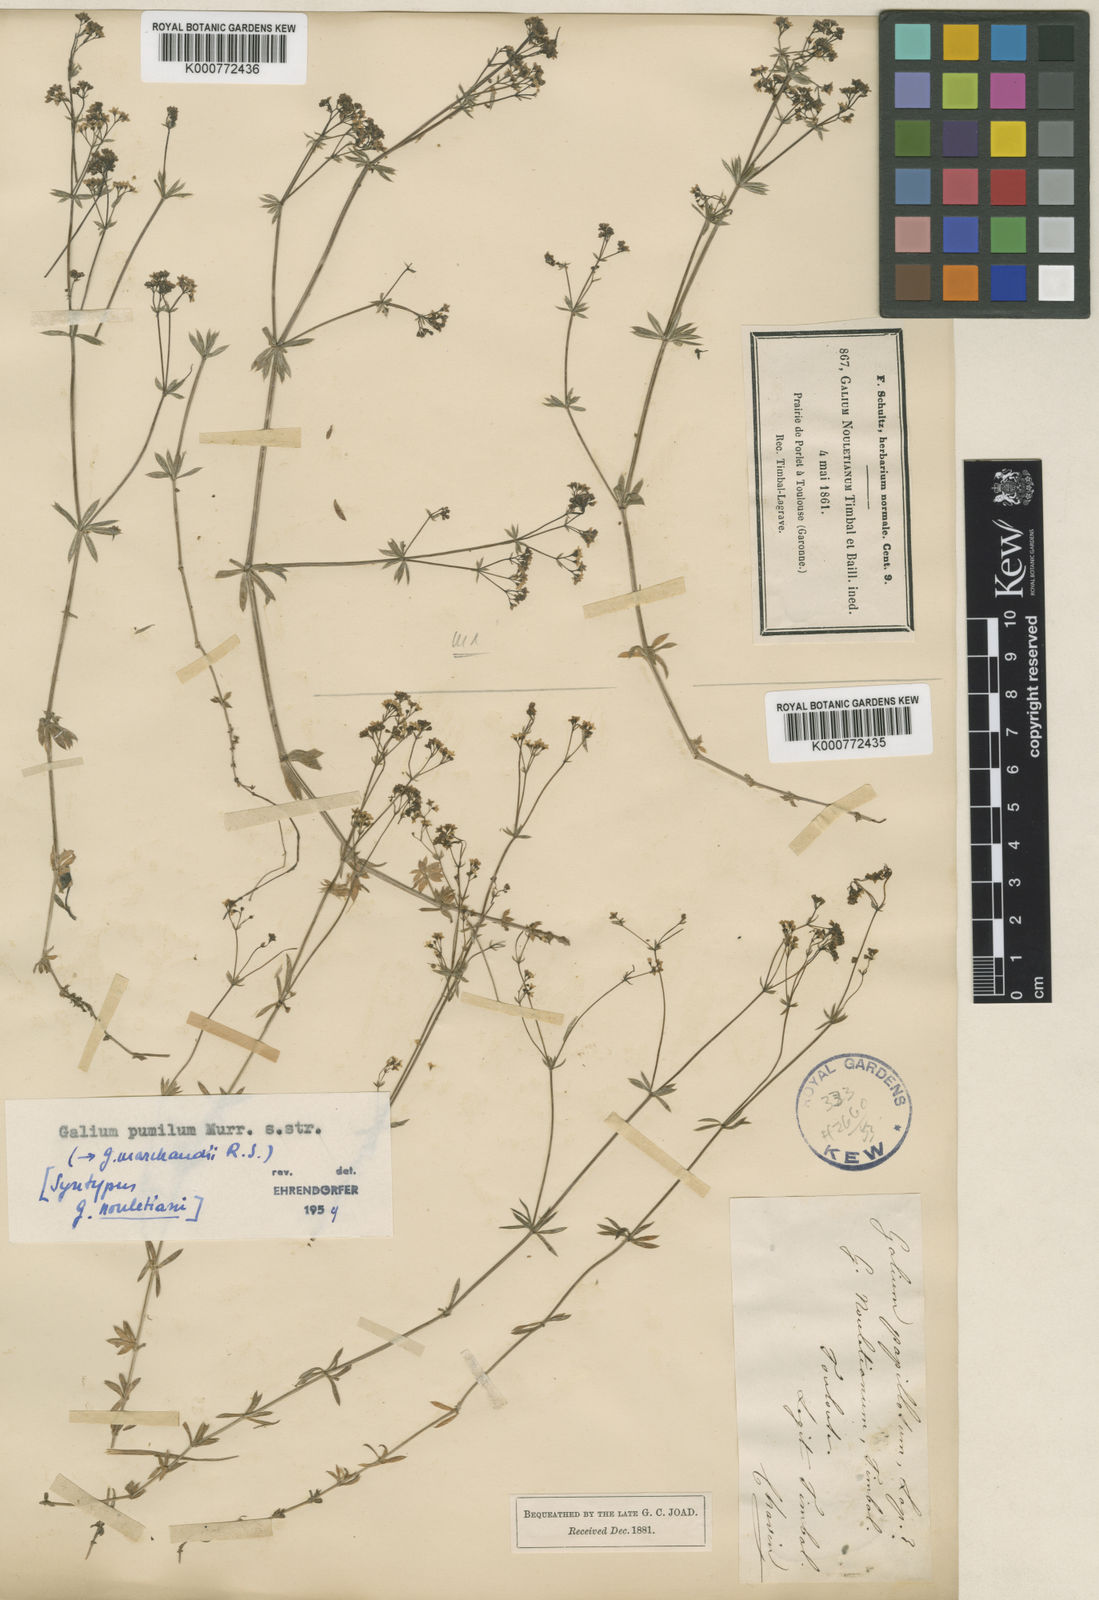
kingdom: Plantae
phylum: Tracheophyta
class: Magnoliopsida
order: Gentianales
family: Rubiaceae
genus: Galium
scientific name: Galium pumilum
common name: Slender bedstraw
